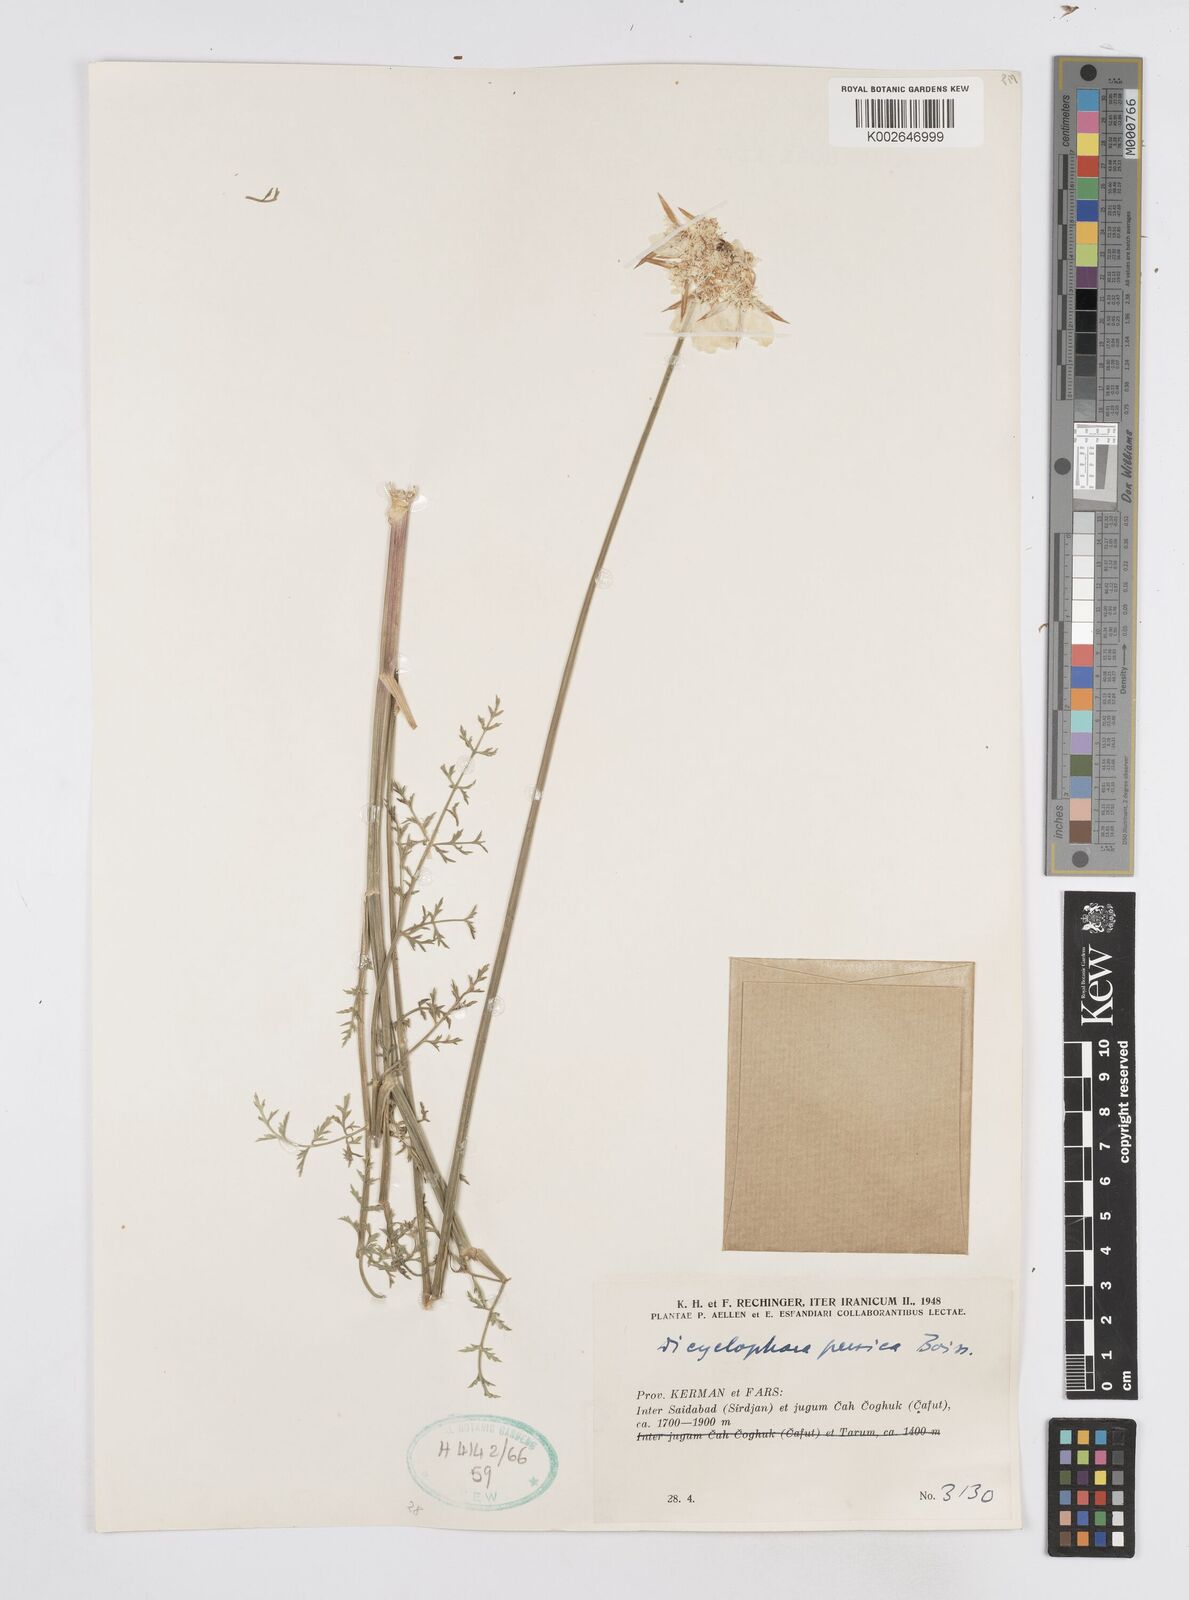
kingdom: Plantae
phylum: Tracheophyta
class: Magnoliopsida
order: Apiales
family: Apiaceae
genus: Dicyclophora
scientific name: Dicyclophora persica
